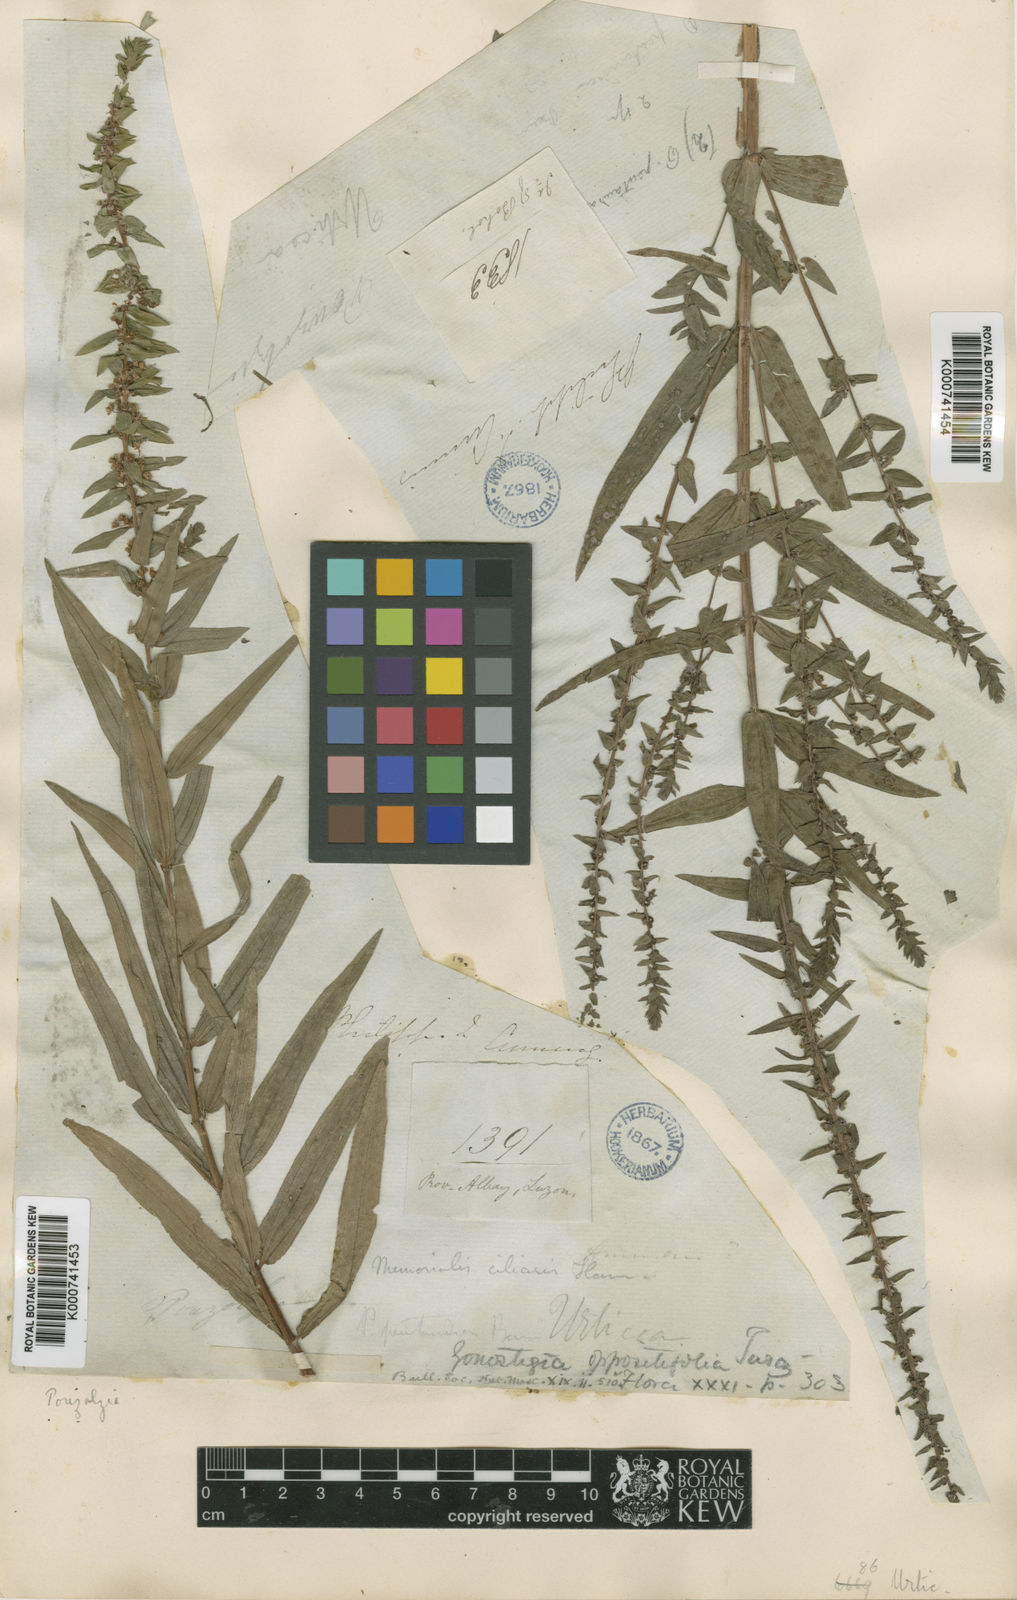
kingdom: Plantae
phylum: Tracheophyta
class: Magnoliopsida
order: Rosales
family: Urticaceae
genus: Gonostegia
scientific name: Gonostegia pentandra
